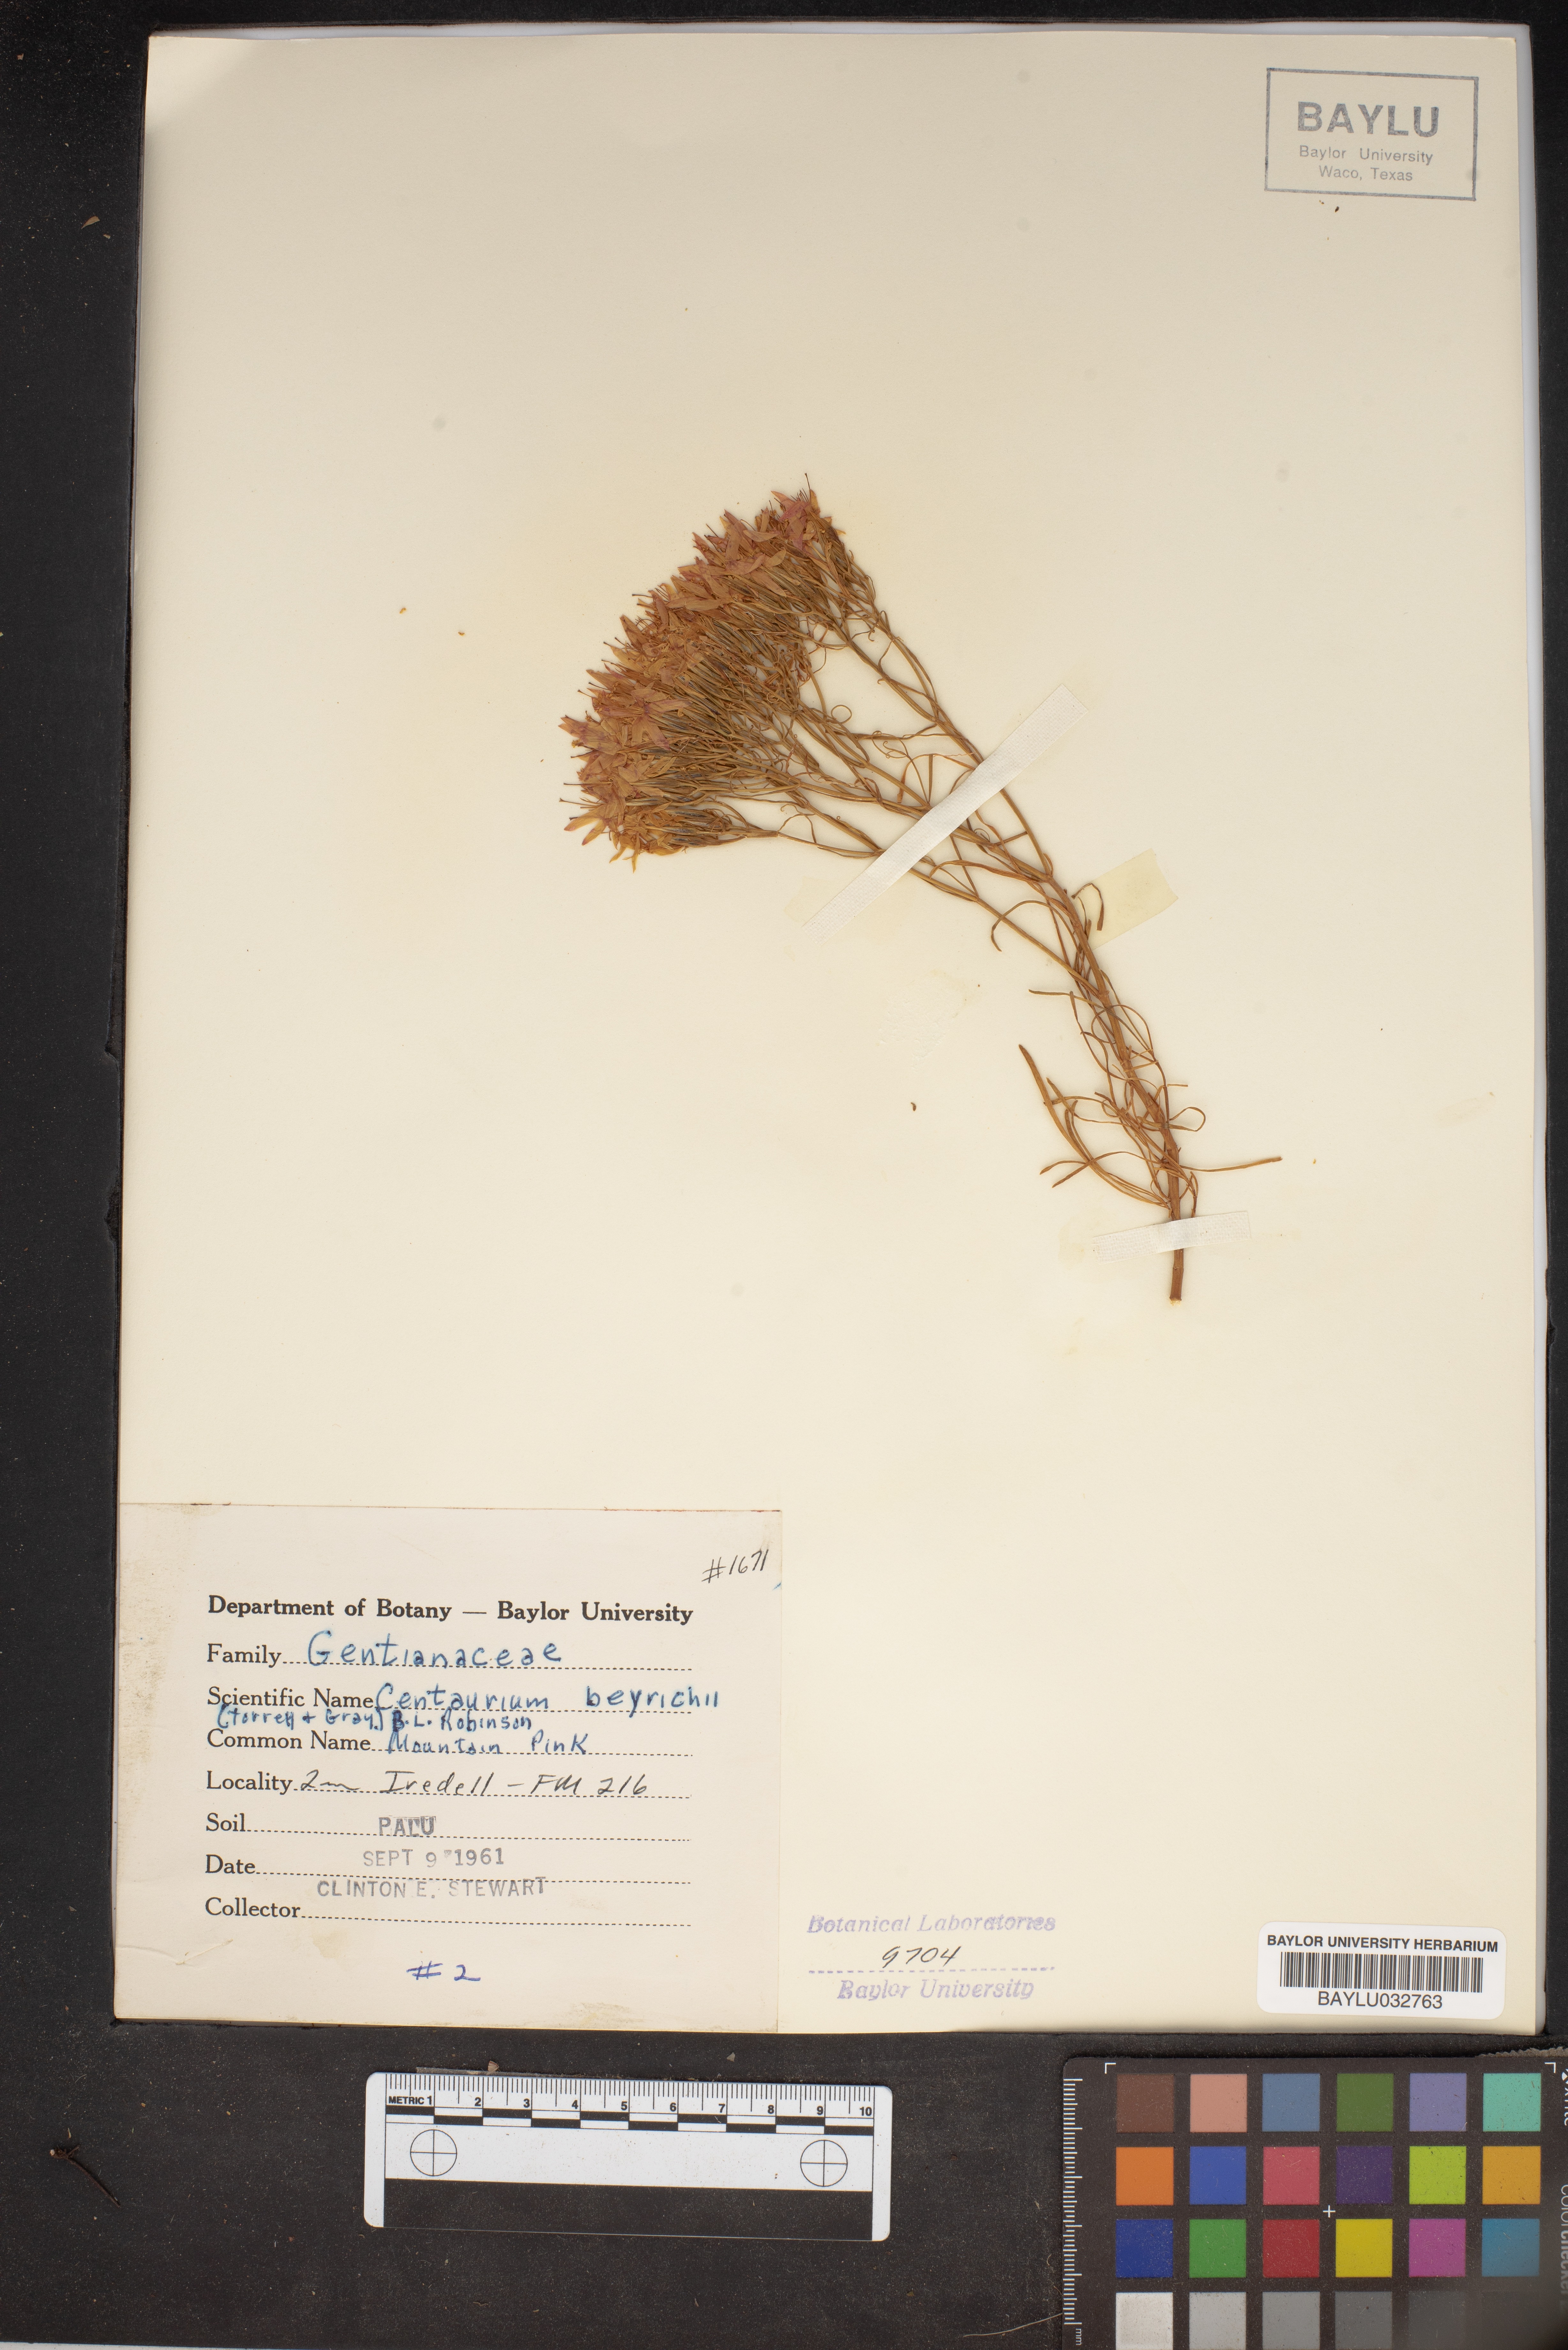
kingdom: Plantae
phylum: Tracheophyta
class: Magnoliopsida
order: Gentianales
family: Gentianaceae
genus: Zeltnera
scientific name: Zeltnera beyrichii
